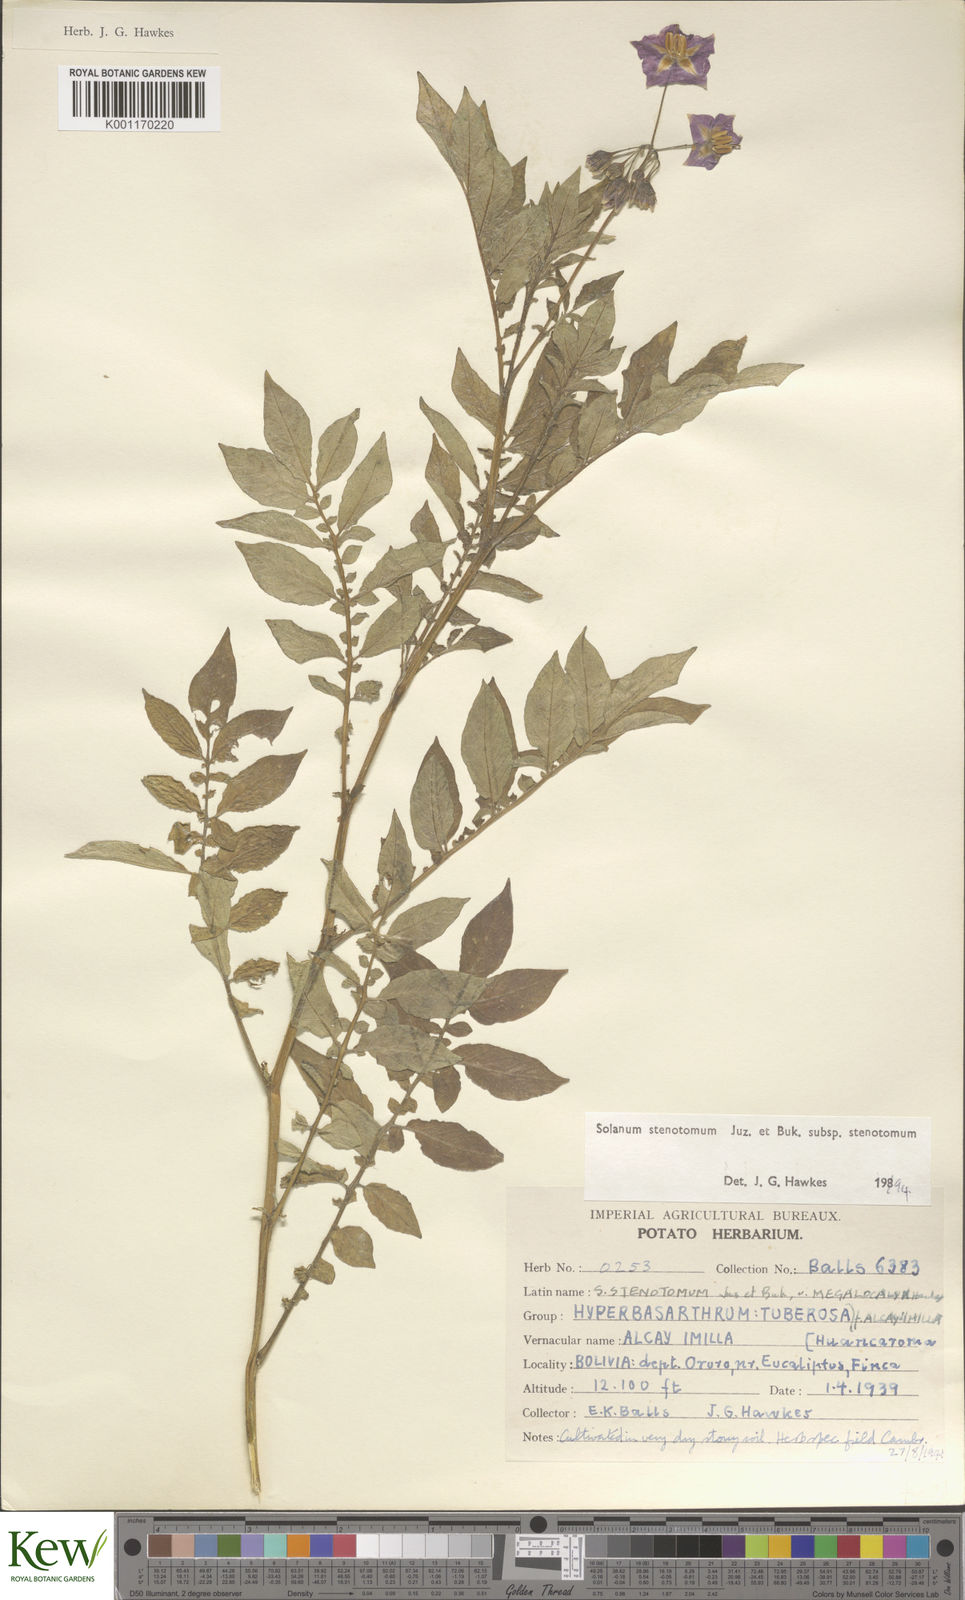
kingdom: Plantae
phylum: Tracheophyta
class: Magnoliopsida
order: Solanales
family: Solanaceae
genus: Solanum
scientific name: Solanum tuberosum
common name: Potato
